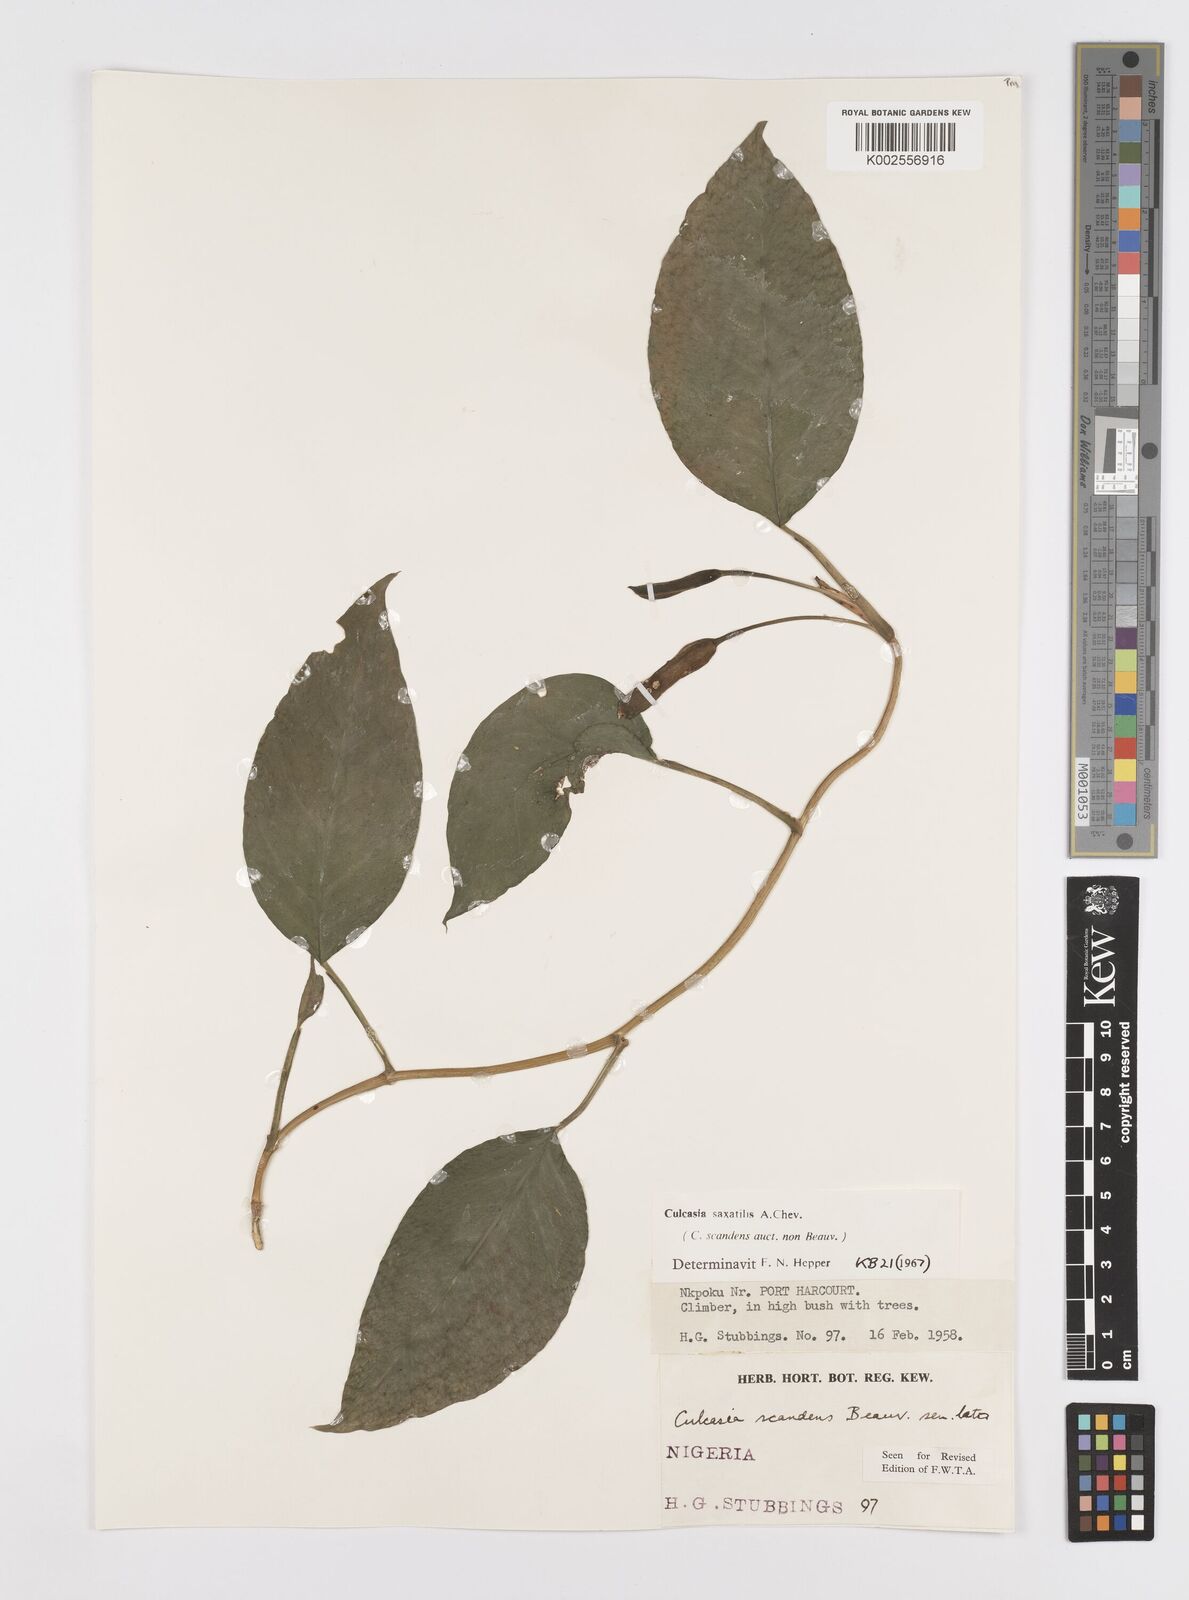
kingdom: Plantae
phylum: Tracheophyta
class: Liliopsida
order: Alismatales
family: Araceae
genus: Culcasia
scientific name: Culcasia scandens
